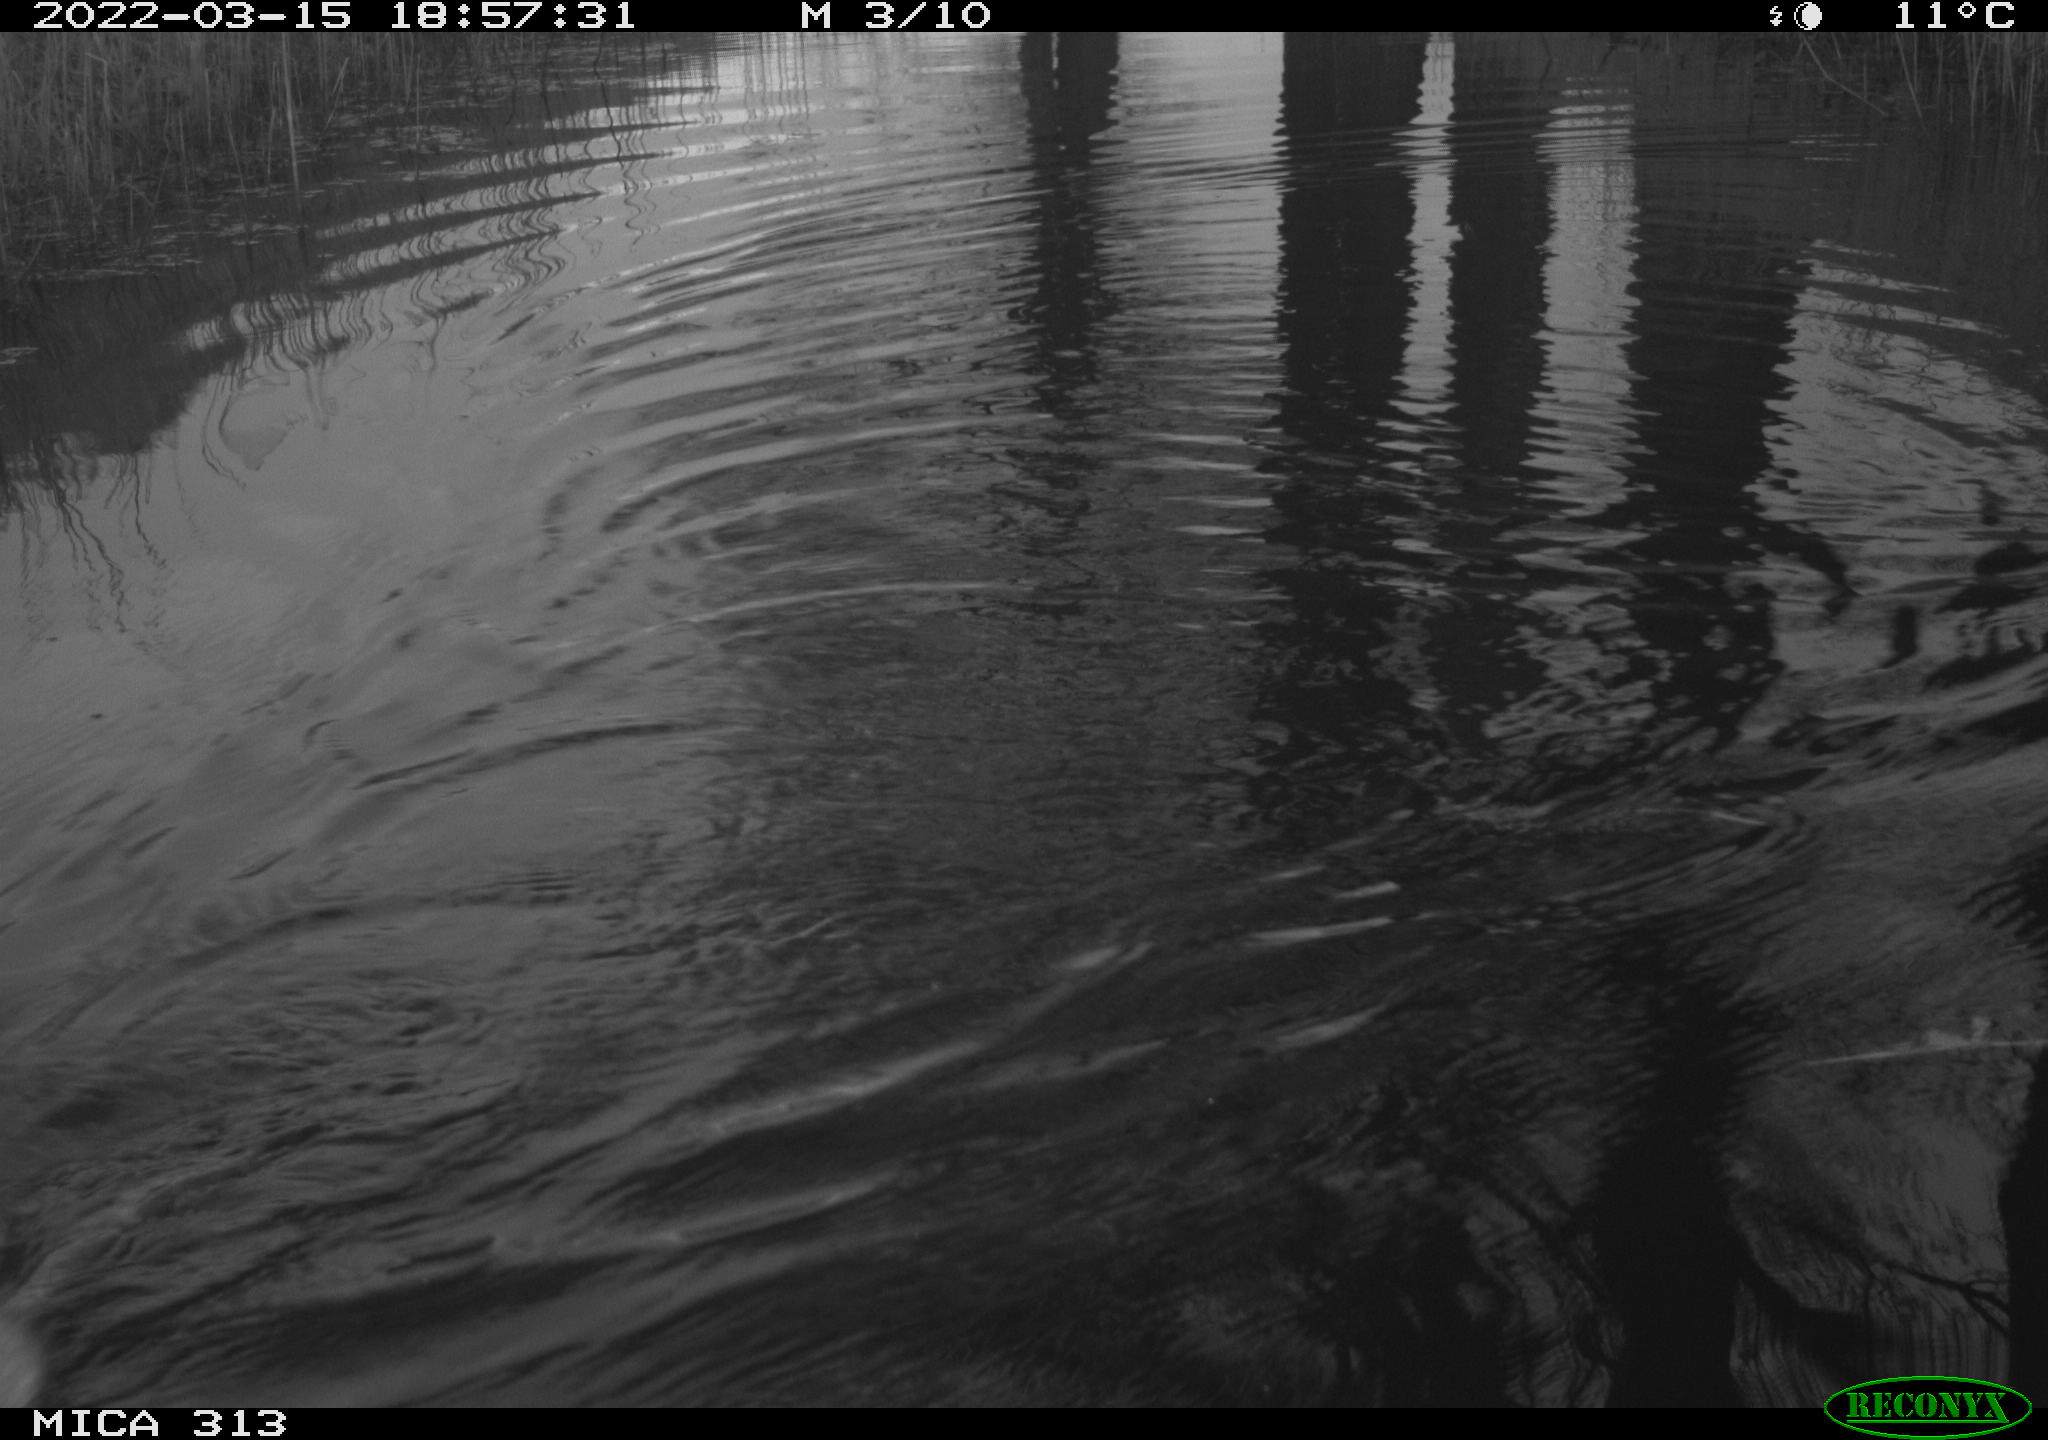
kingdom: Animalia
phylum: Chordata
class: Mammalia
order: Rodentia
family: Cricetidae
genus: Ondatra
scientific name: Ondatra zibethicus
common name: Muskrat
